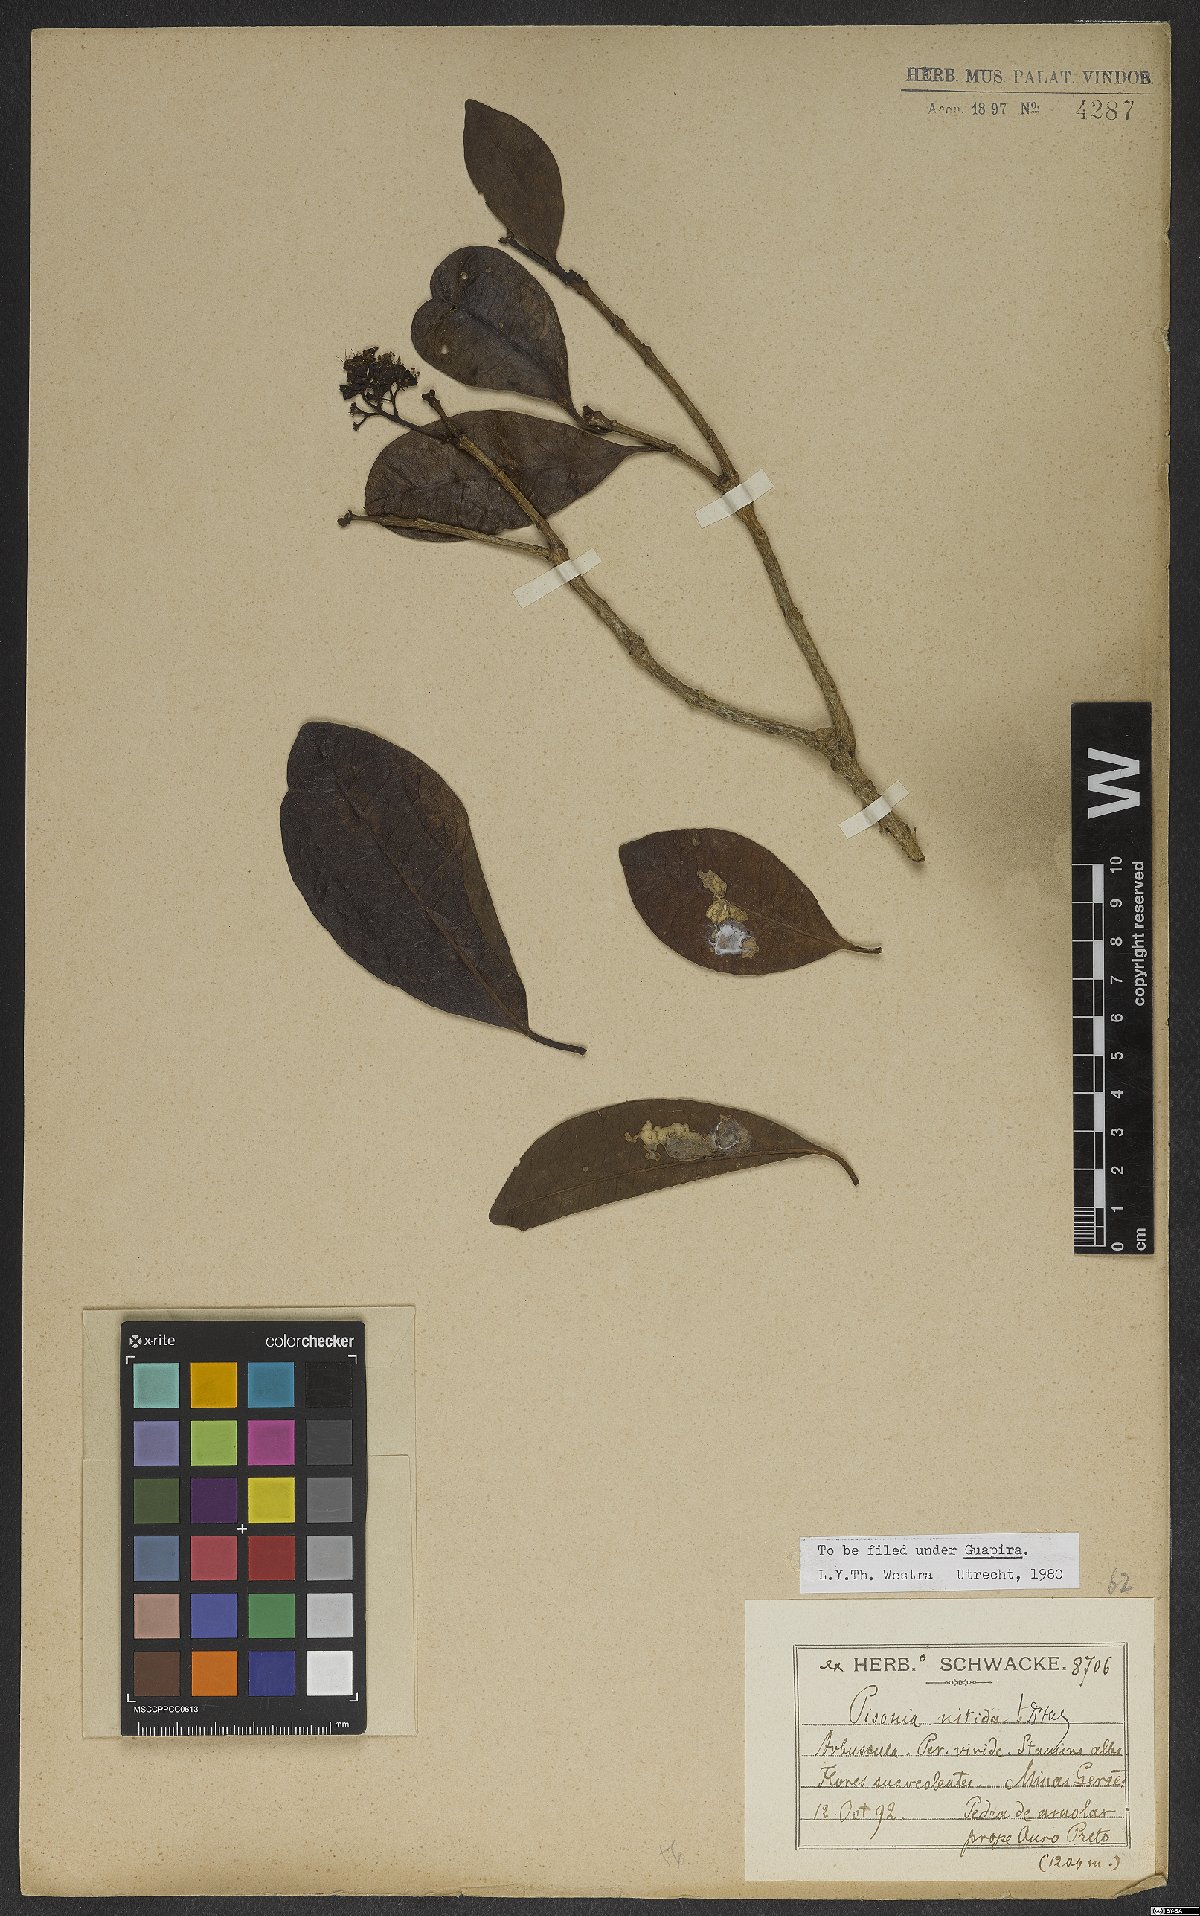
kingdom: Plantae
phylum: Tracheophyta
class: Magnoliopsida
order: Caryophyllales
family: Nyctaginaceae
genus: Guapira
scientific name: Guapira nitida
